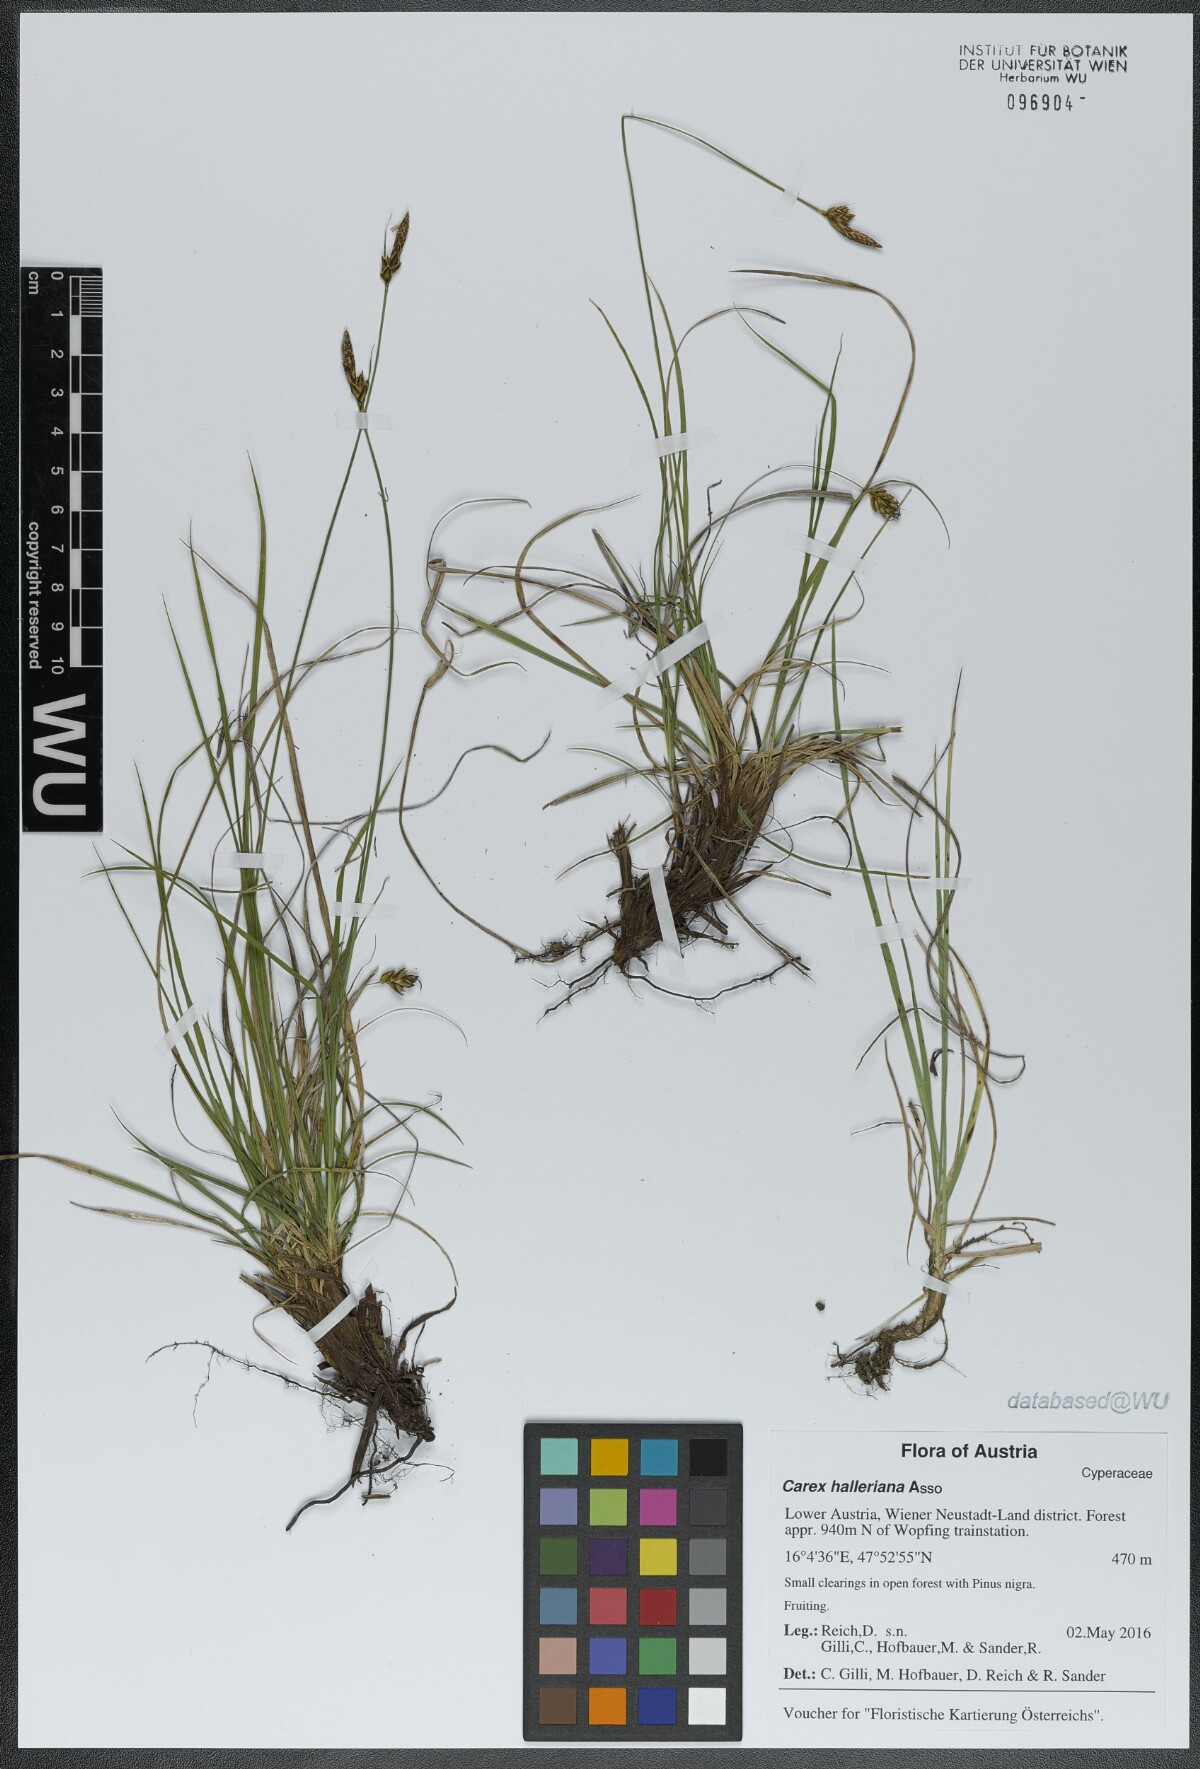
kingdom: Plantae
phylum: Tracheophyta
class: Liliopsida
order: Poales
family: Cyperaceae
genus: Carex
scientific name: Carex halleriana
